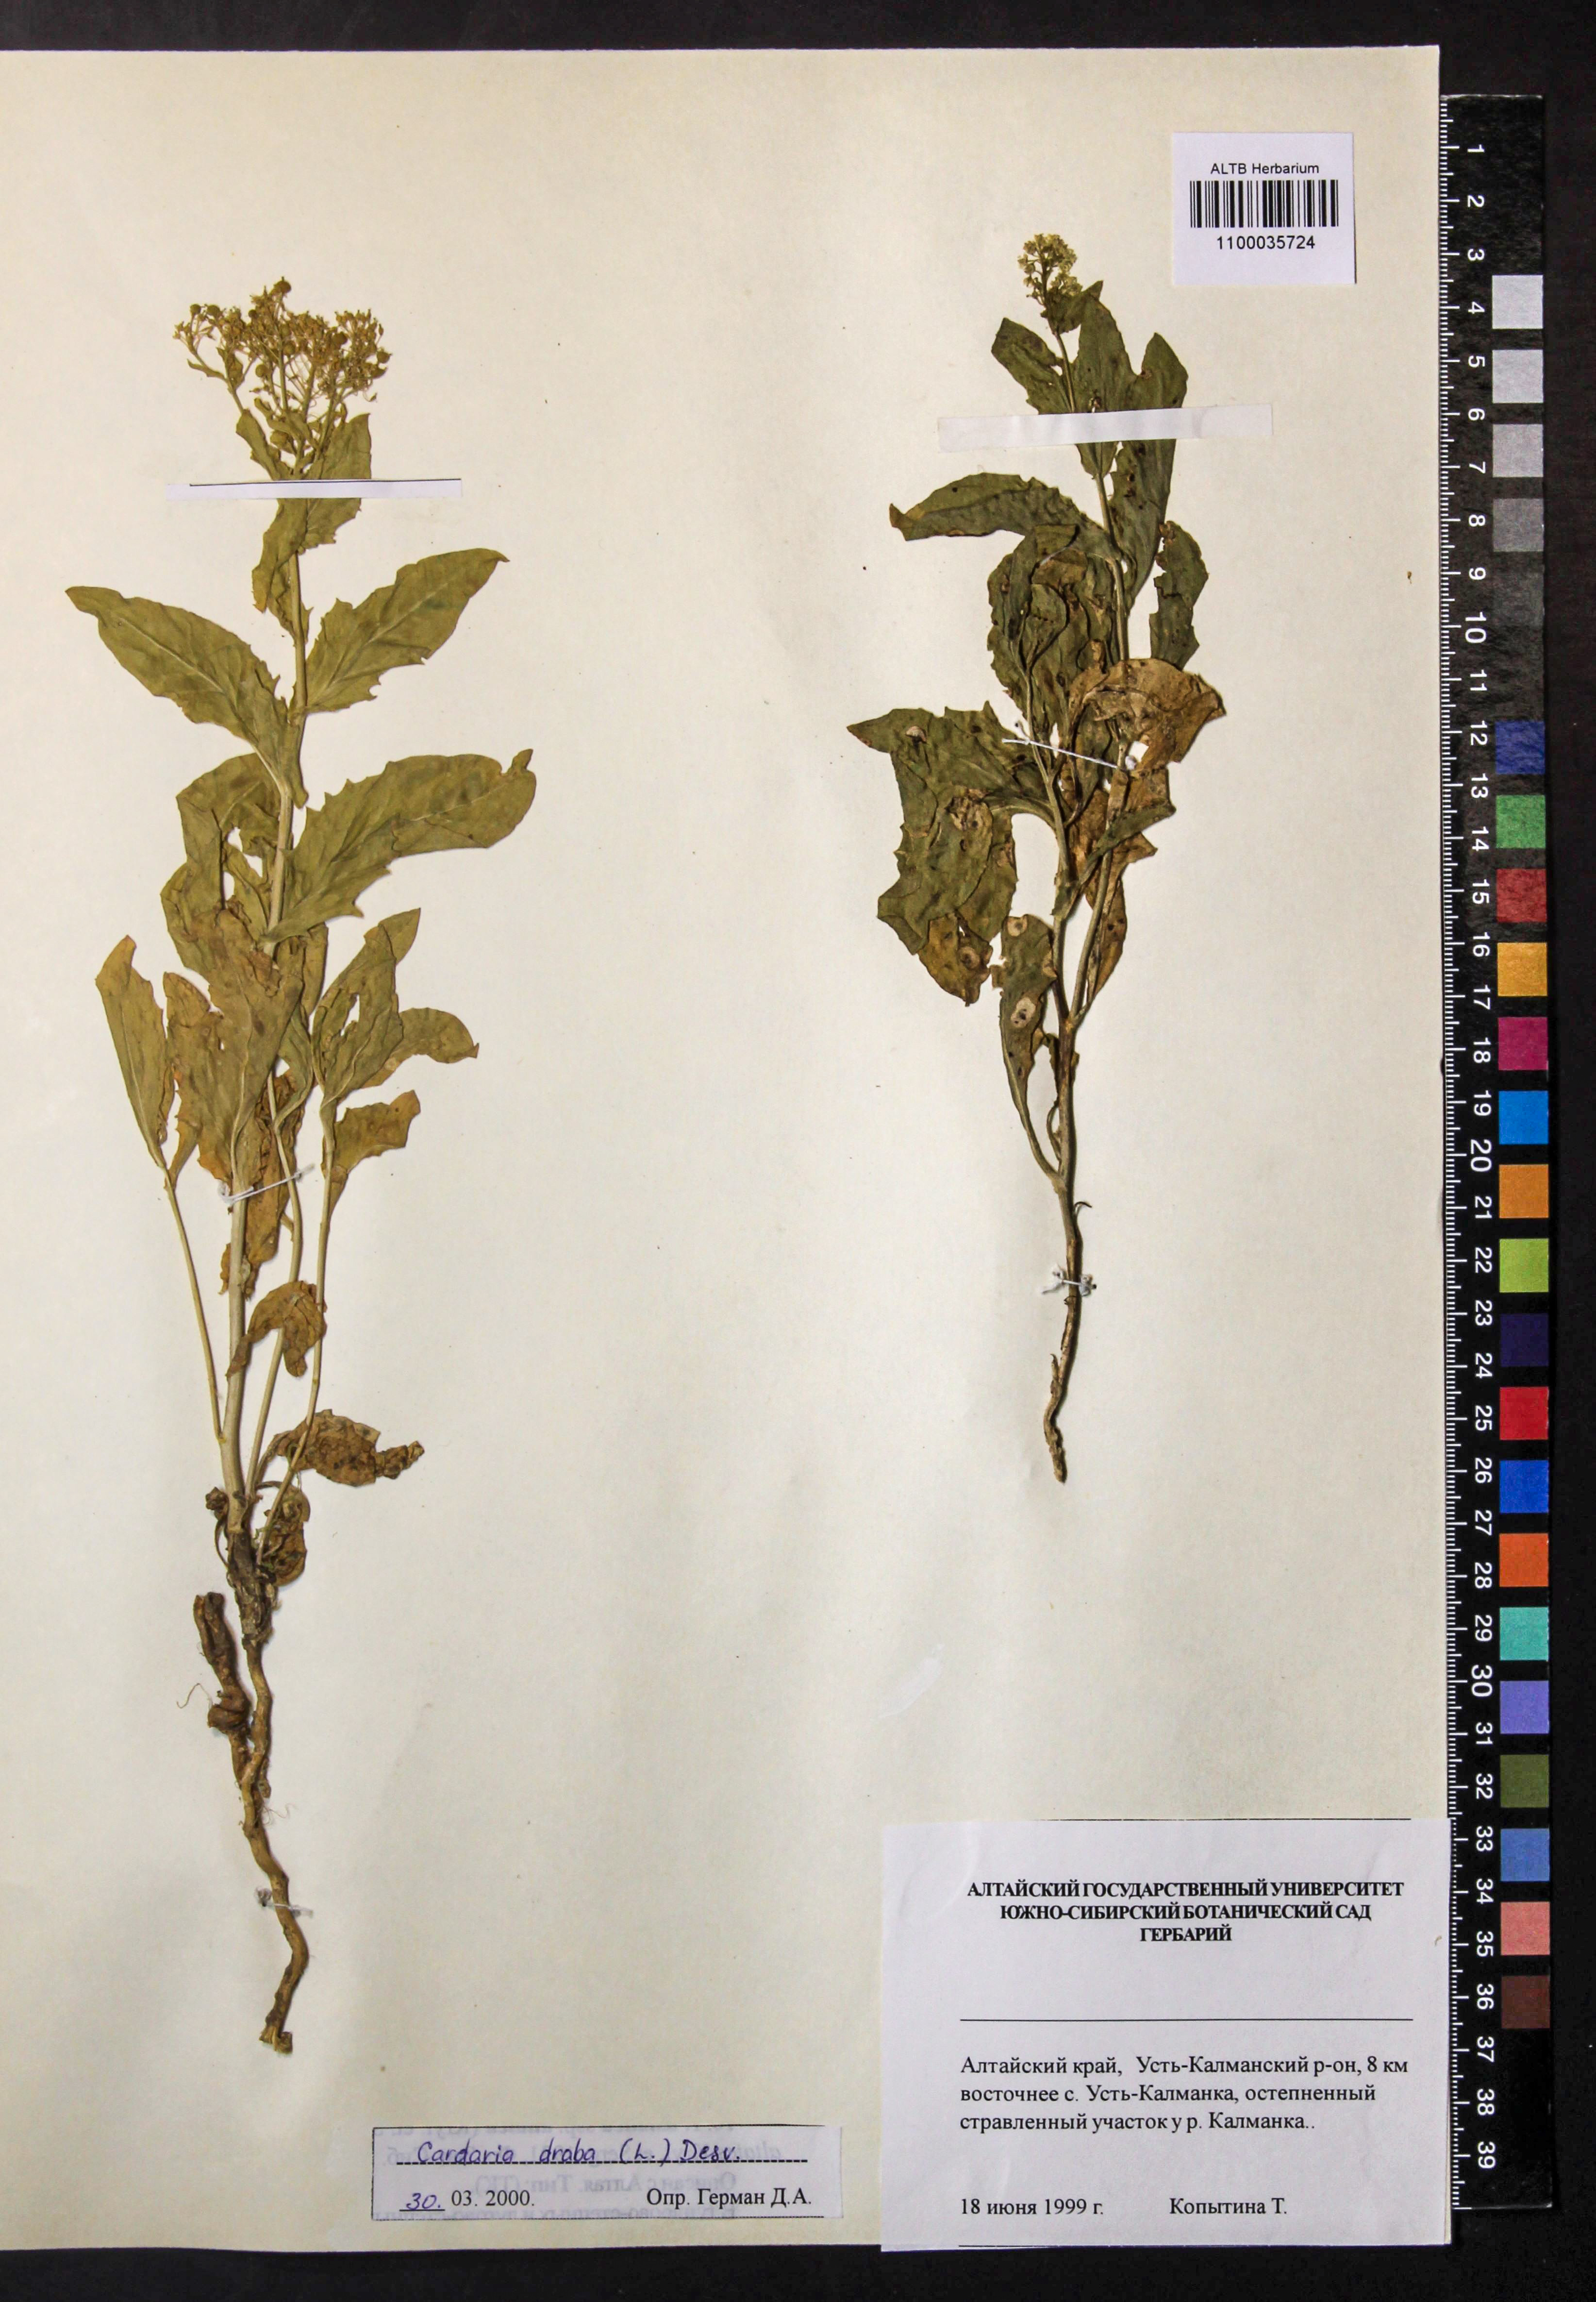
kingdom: Plantae
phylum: Tracheophyta
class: Magnoliopsida
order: Brassicales
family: Brassicaceae
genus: Lepidium
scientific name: Lepidium draba
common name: Hoary cress
